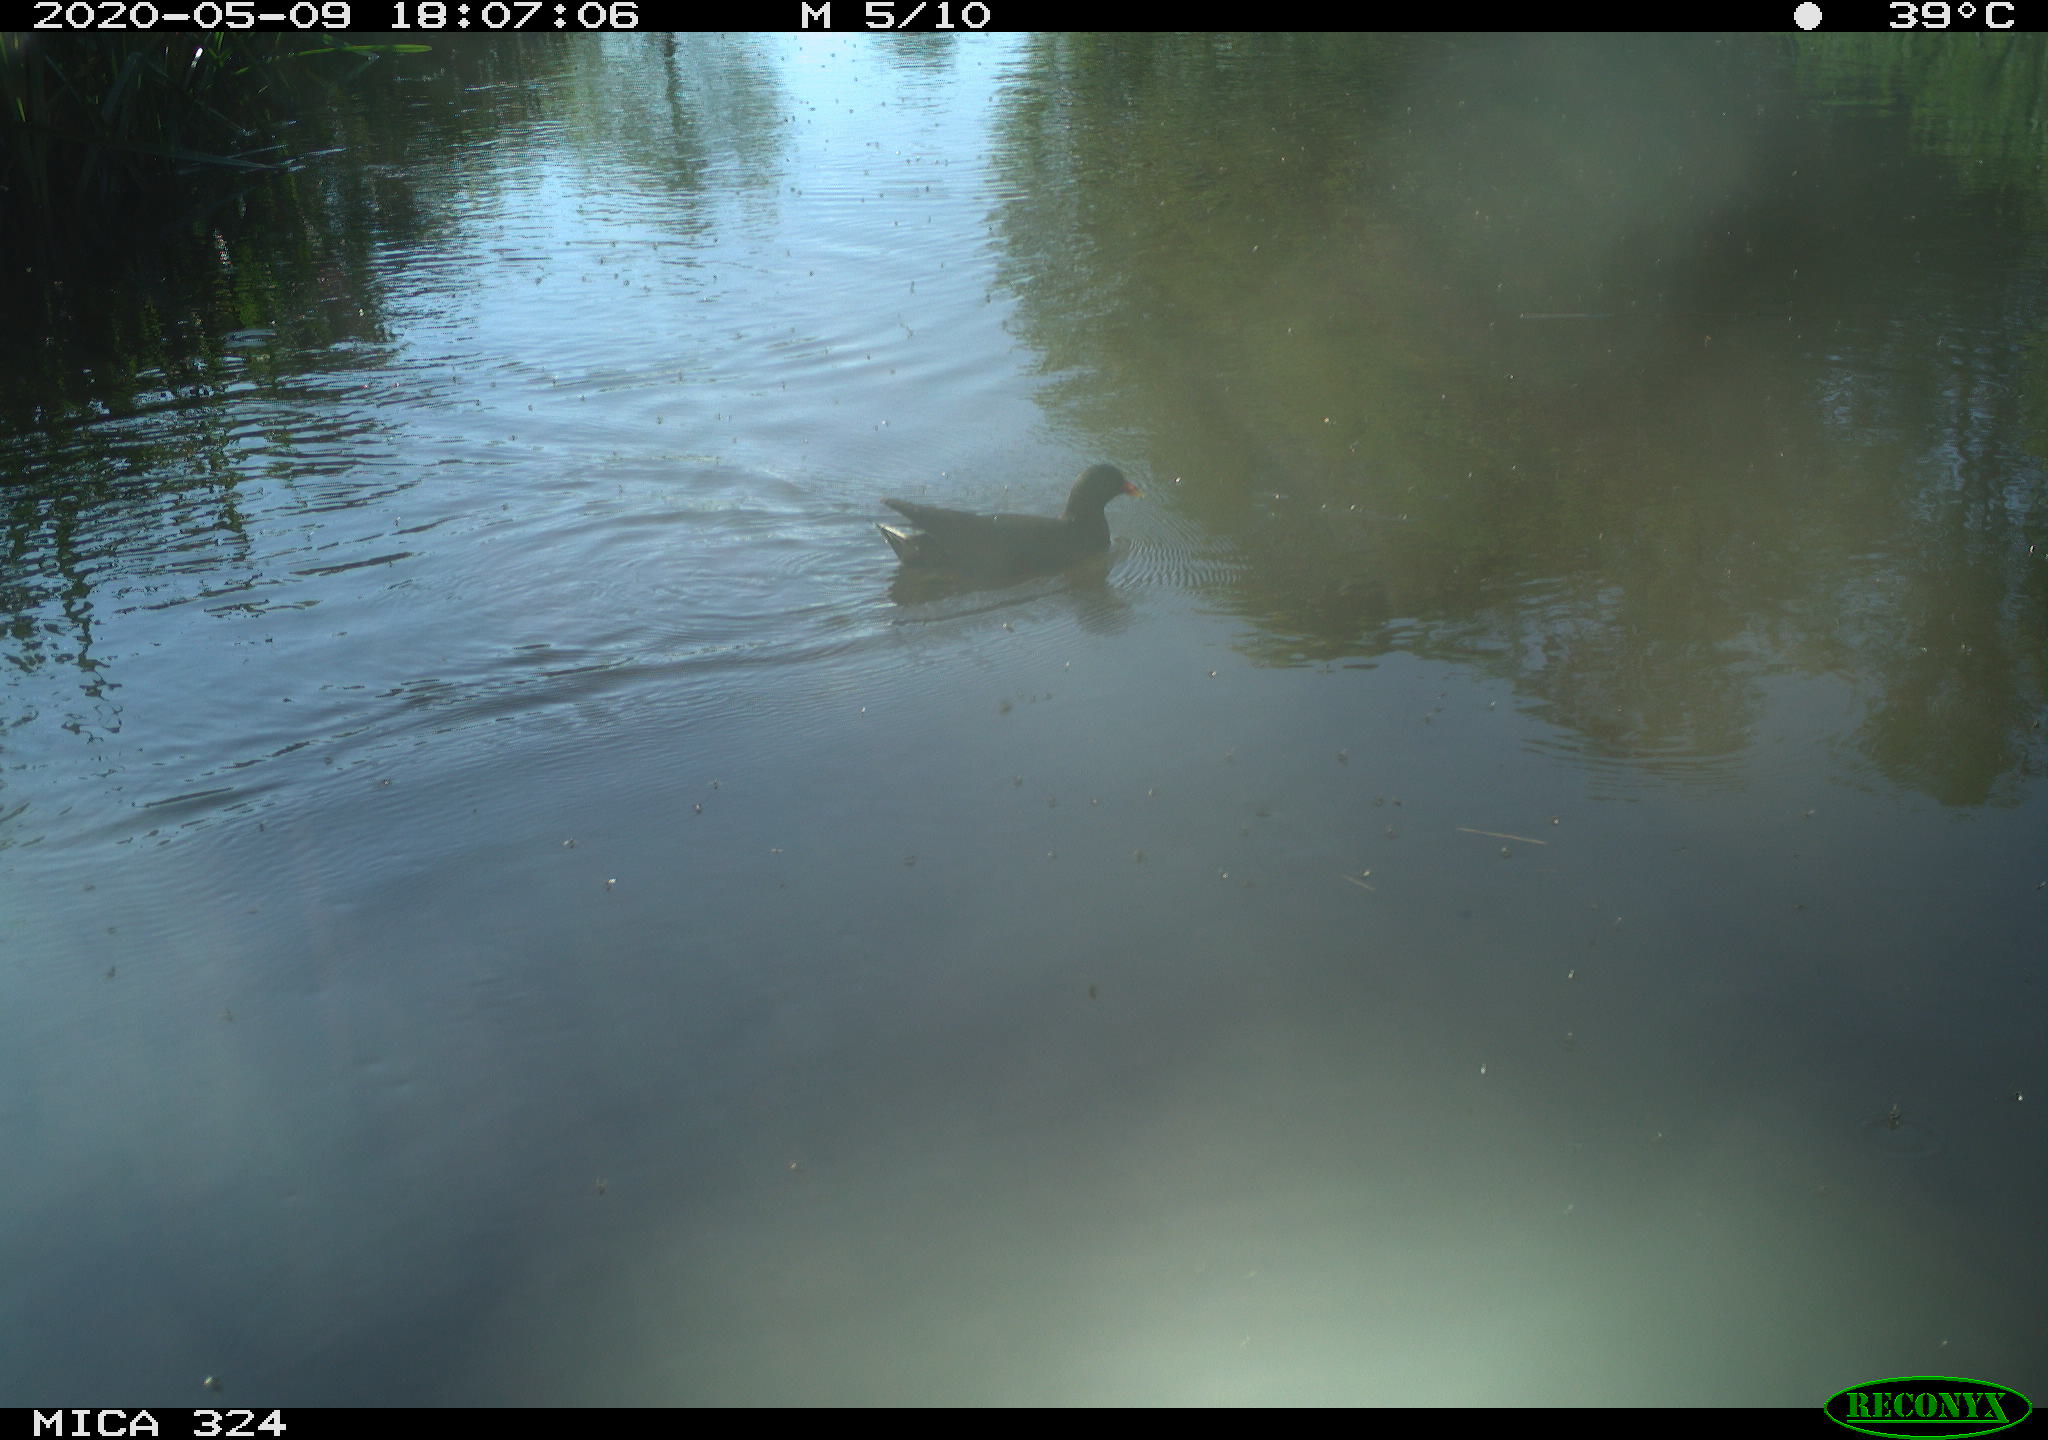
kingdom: Animalia
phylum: Chordata
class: Aves
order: Gruiformes
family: Rallidae
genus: Gallinula
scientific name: Gallinula chloropus
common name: Common moorhen
